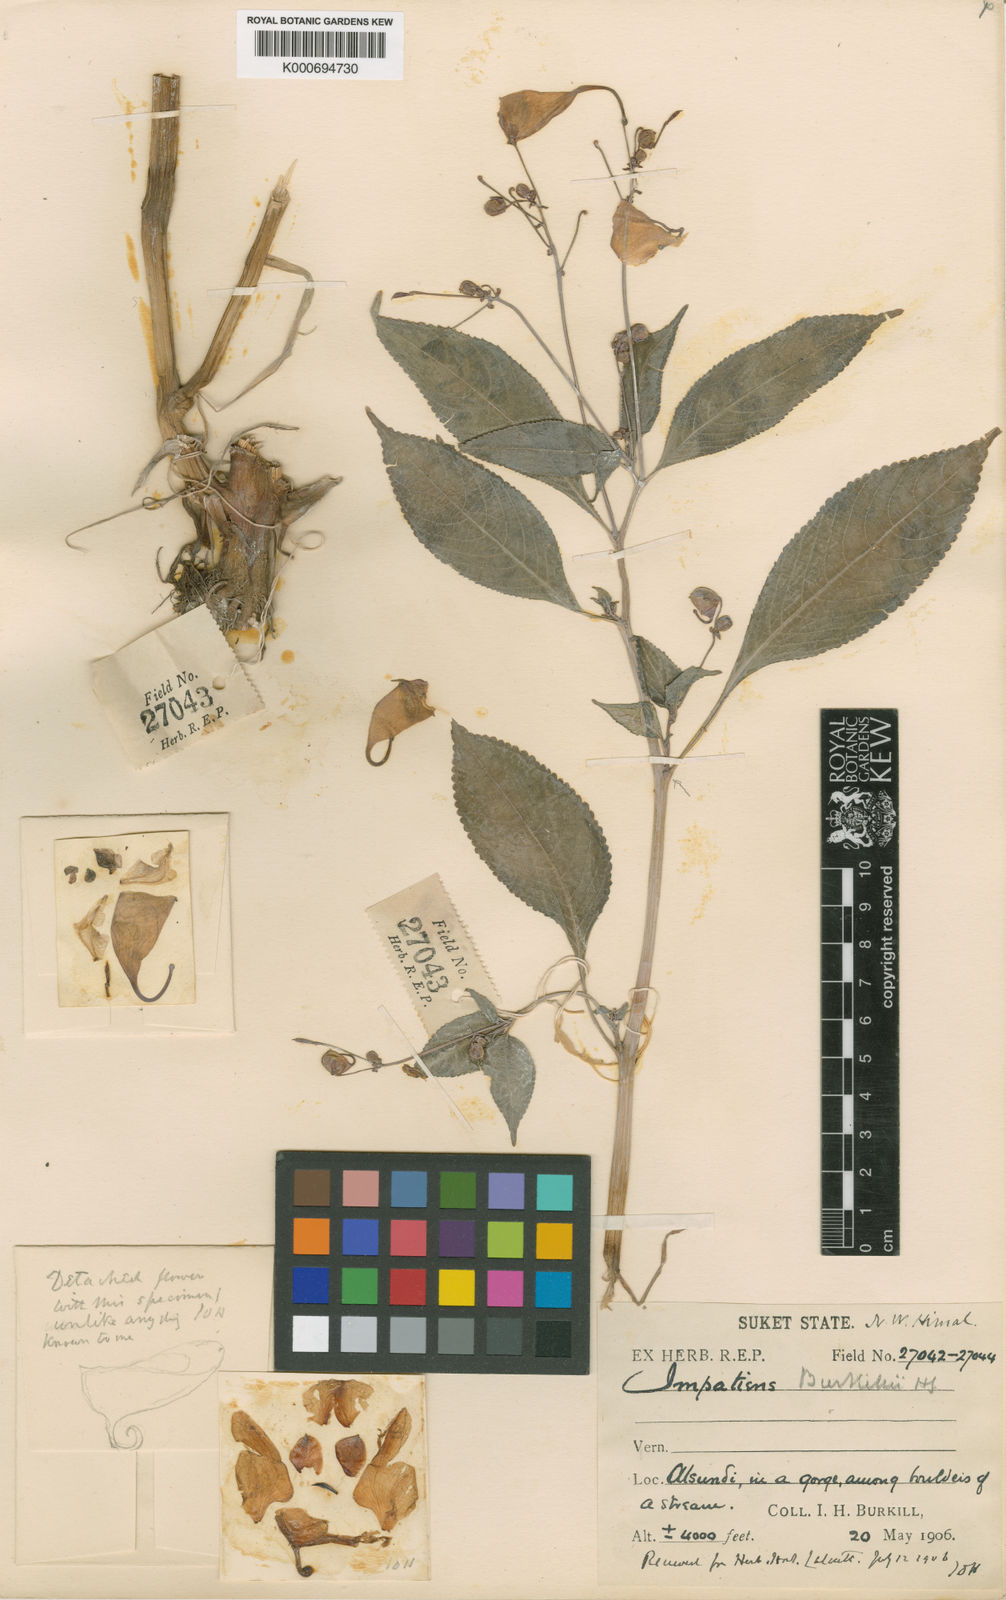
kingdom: Plantae
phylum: Tracheophyta
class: Magnoliopsida
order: Ericales
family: Balsaminaceae
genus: Impatiens
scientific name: Impatiens
